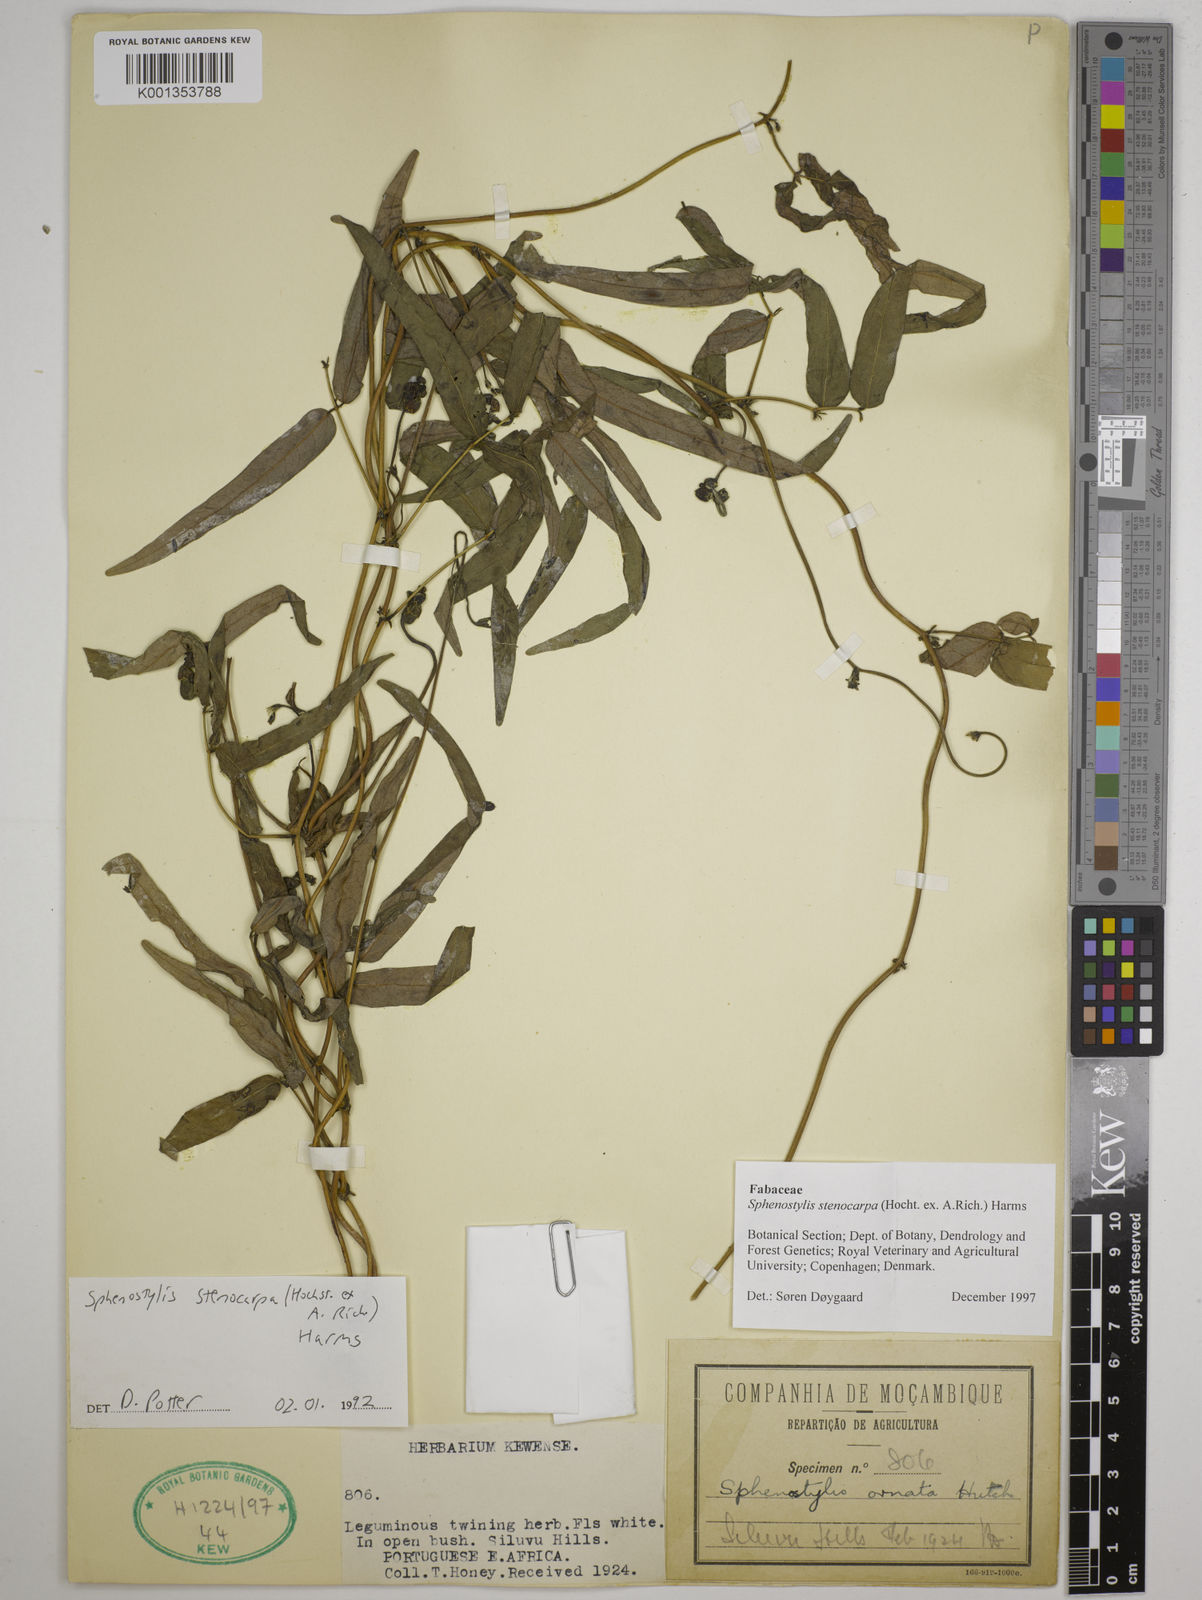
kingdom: Plantae
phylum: Tracheophyta
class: Magnoliopsida
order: Fabales
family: Fabaceae
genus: Sphenostylis
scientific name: Sphenostylis stenocarpa
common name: Yam-pea
